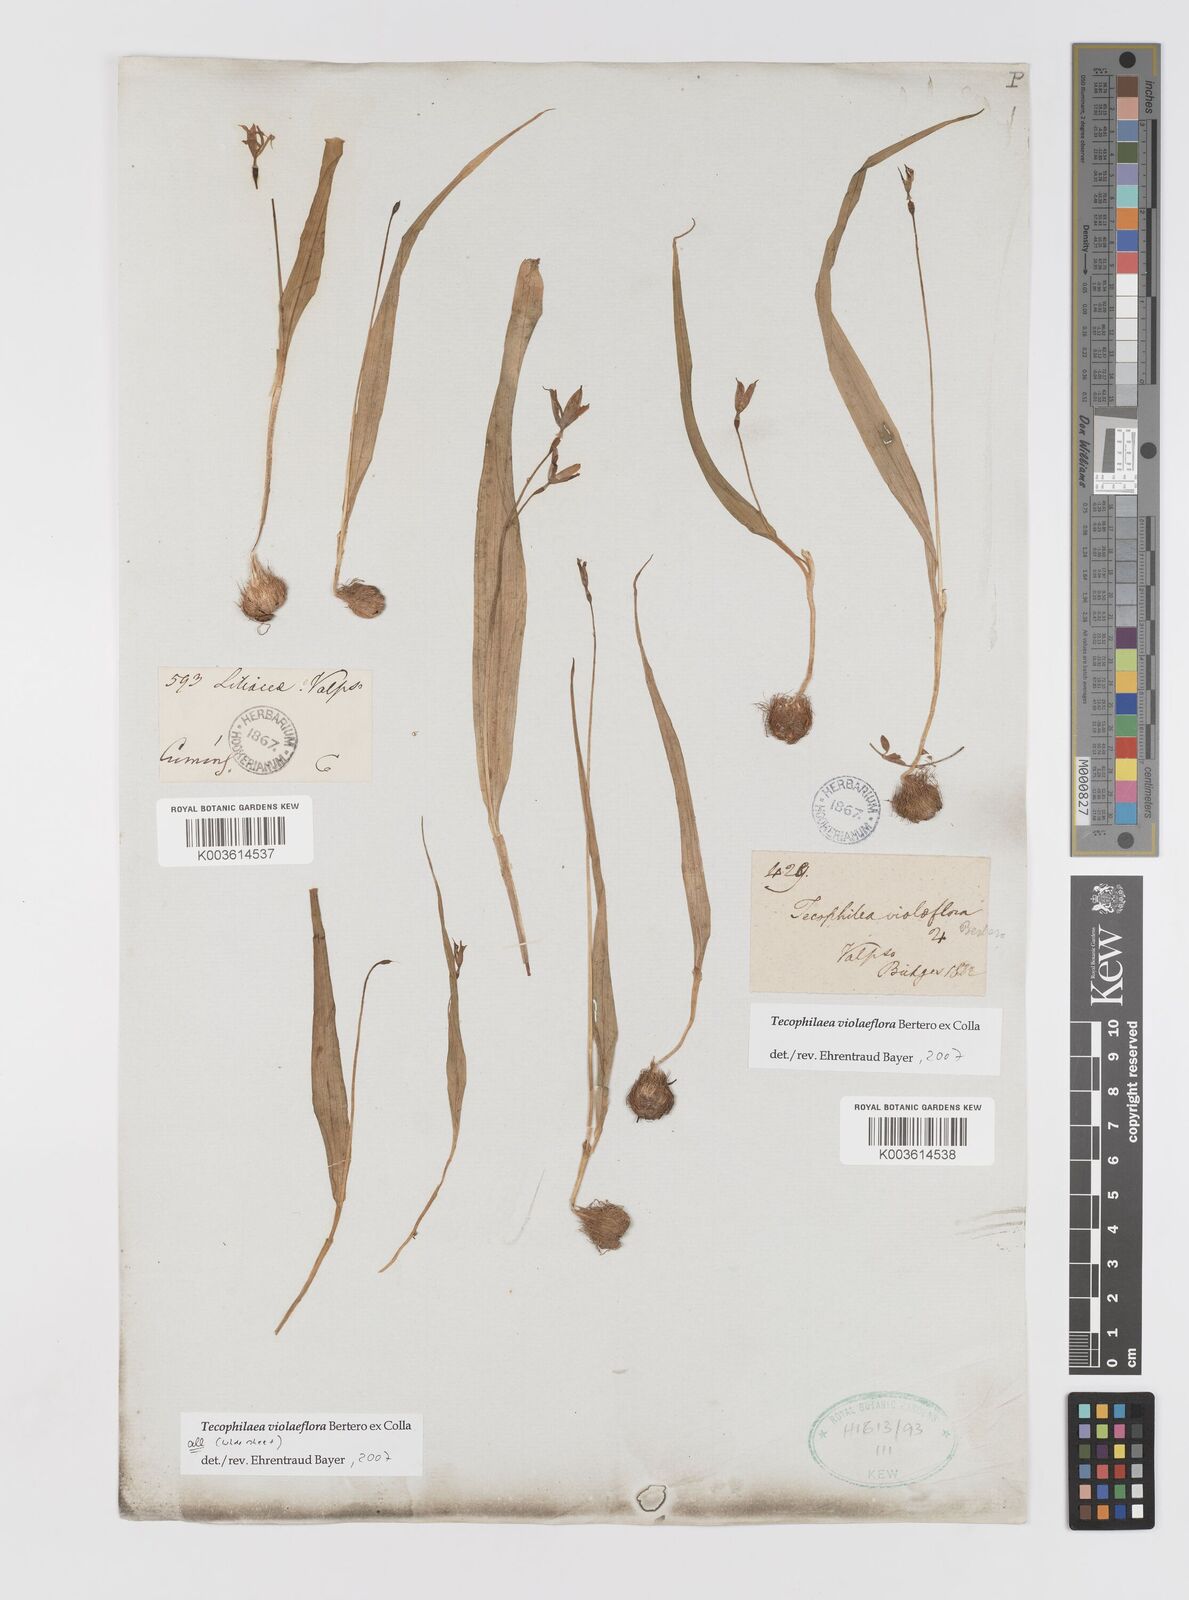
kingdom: Plantae
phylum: Tracheophyta
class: Liliopsida
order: Asparagales
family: Tecophilaeaceae
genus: Tecophilaea
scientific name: Tecophilaea violiflora
